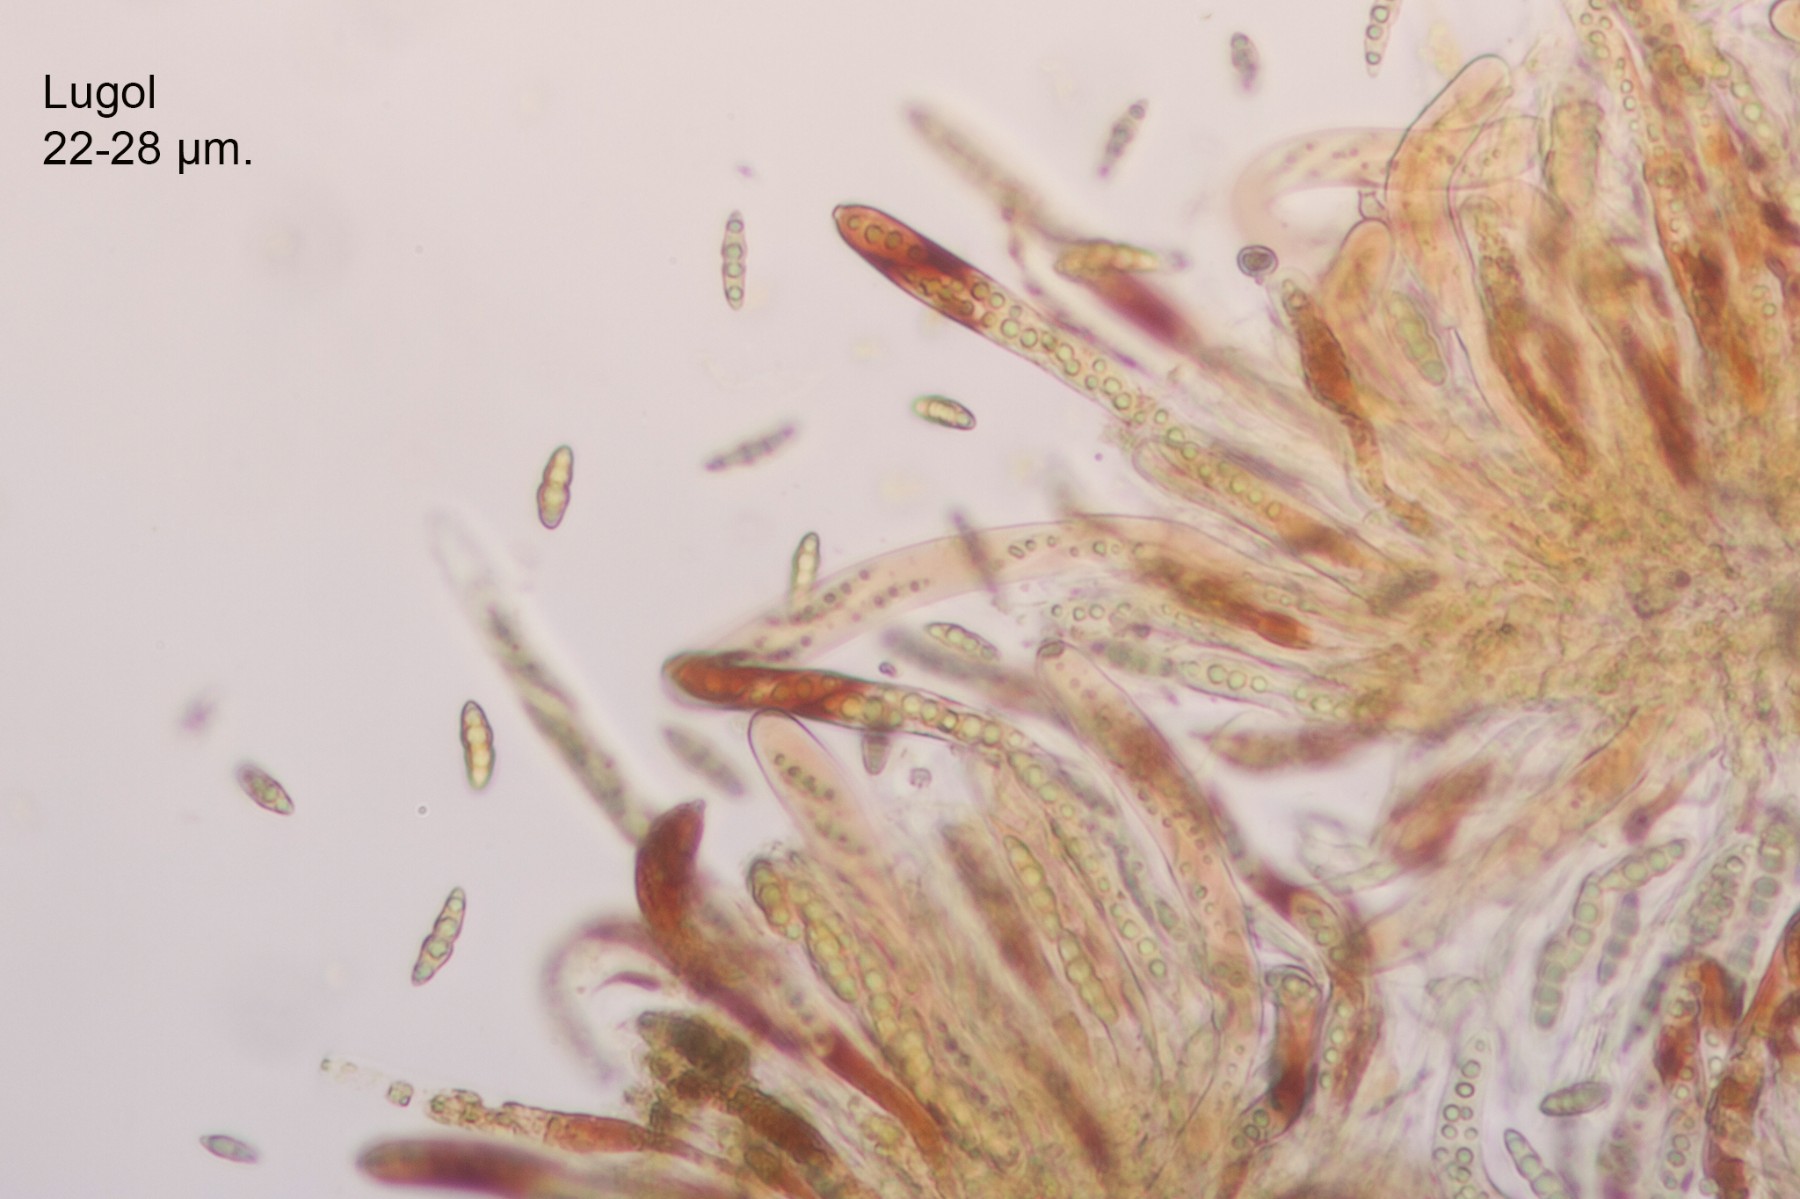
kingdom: Fungi
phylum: Ascomycota
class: Dothideomycetes
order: Pleosporales
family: Lophiostomataceae
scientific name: Lophiostomataceae
